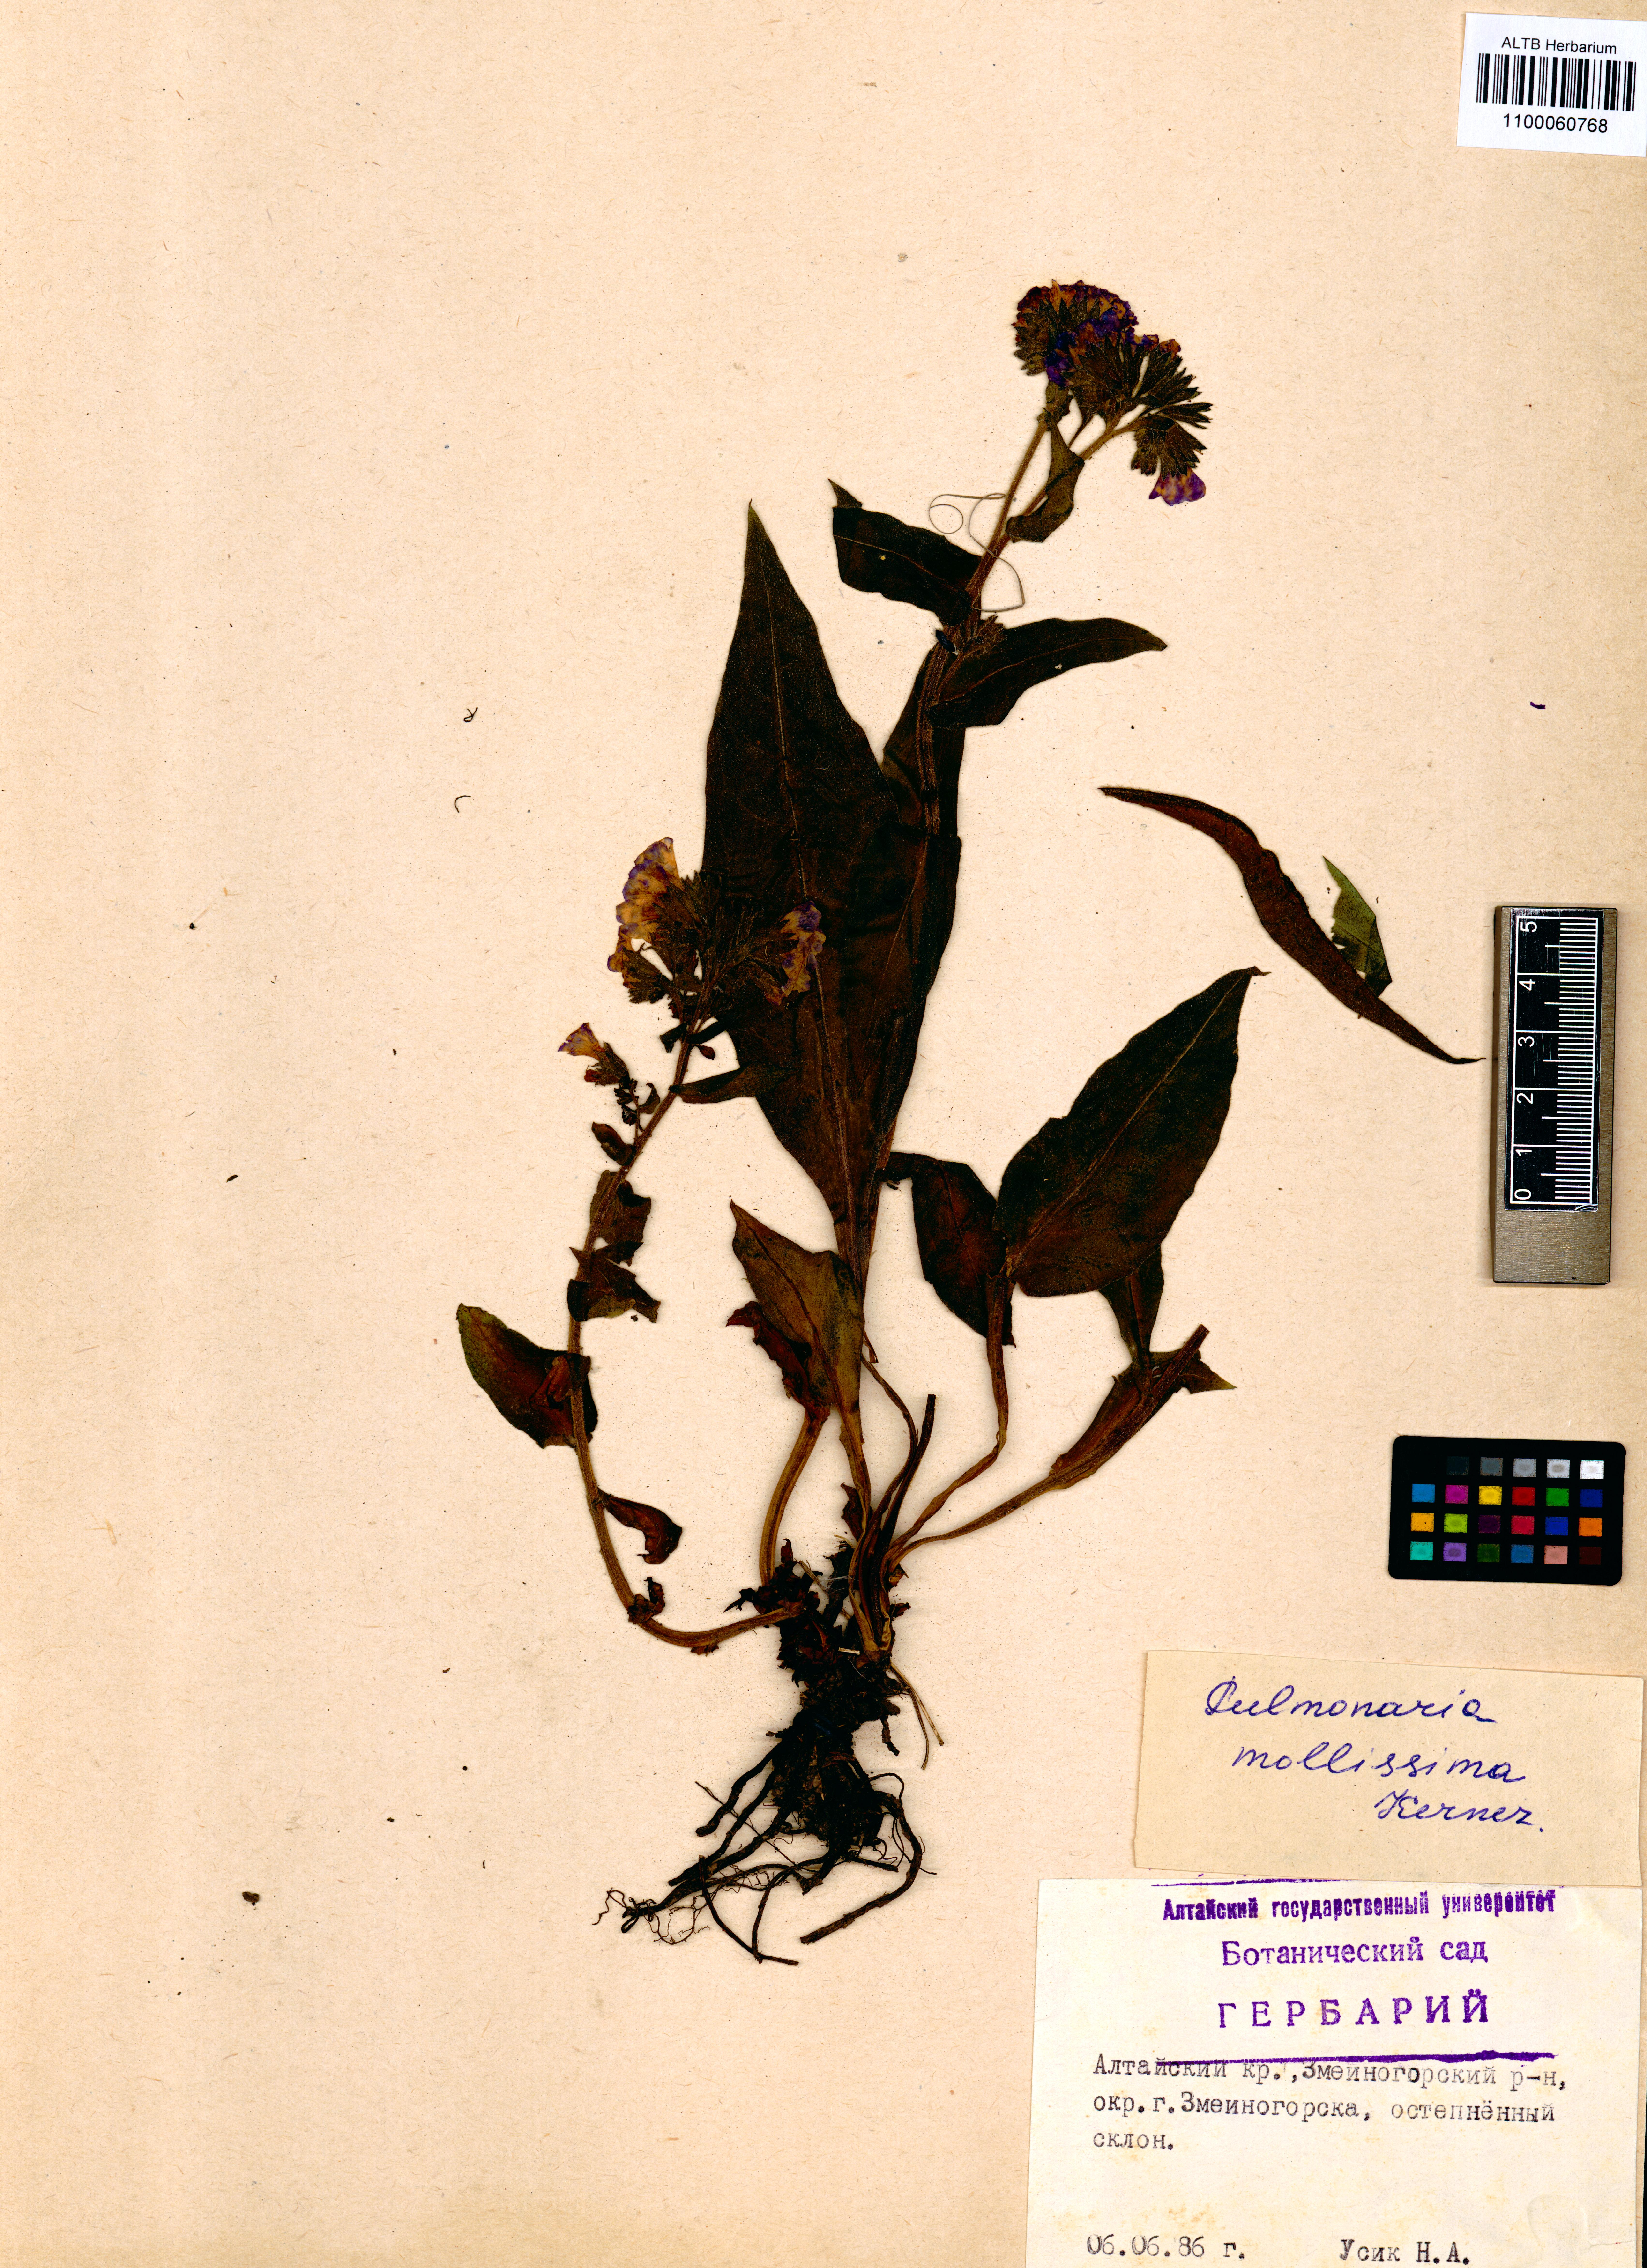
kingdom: Plantae
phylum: Tracheophyta
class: Magnoliopsida
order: Boraginales
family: Boraginaceae
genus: Pulmonaria
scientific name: Pulmonaria mollis
